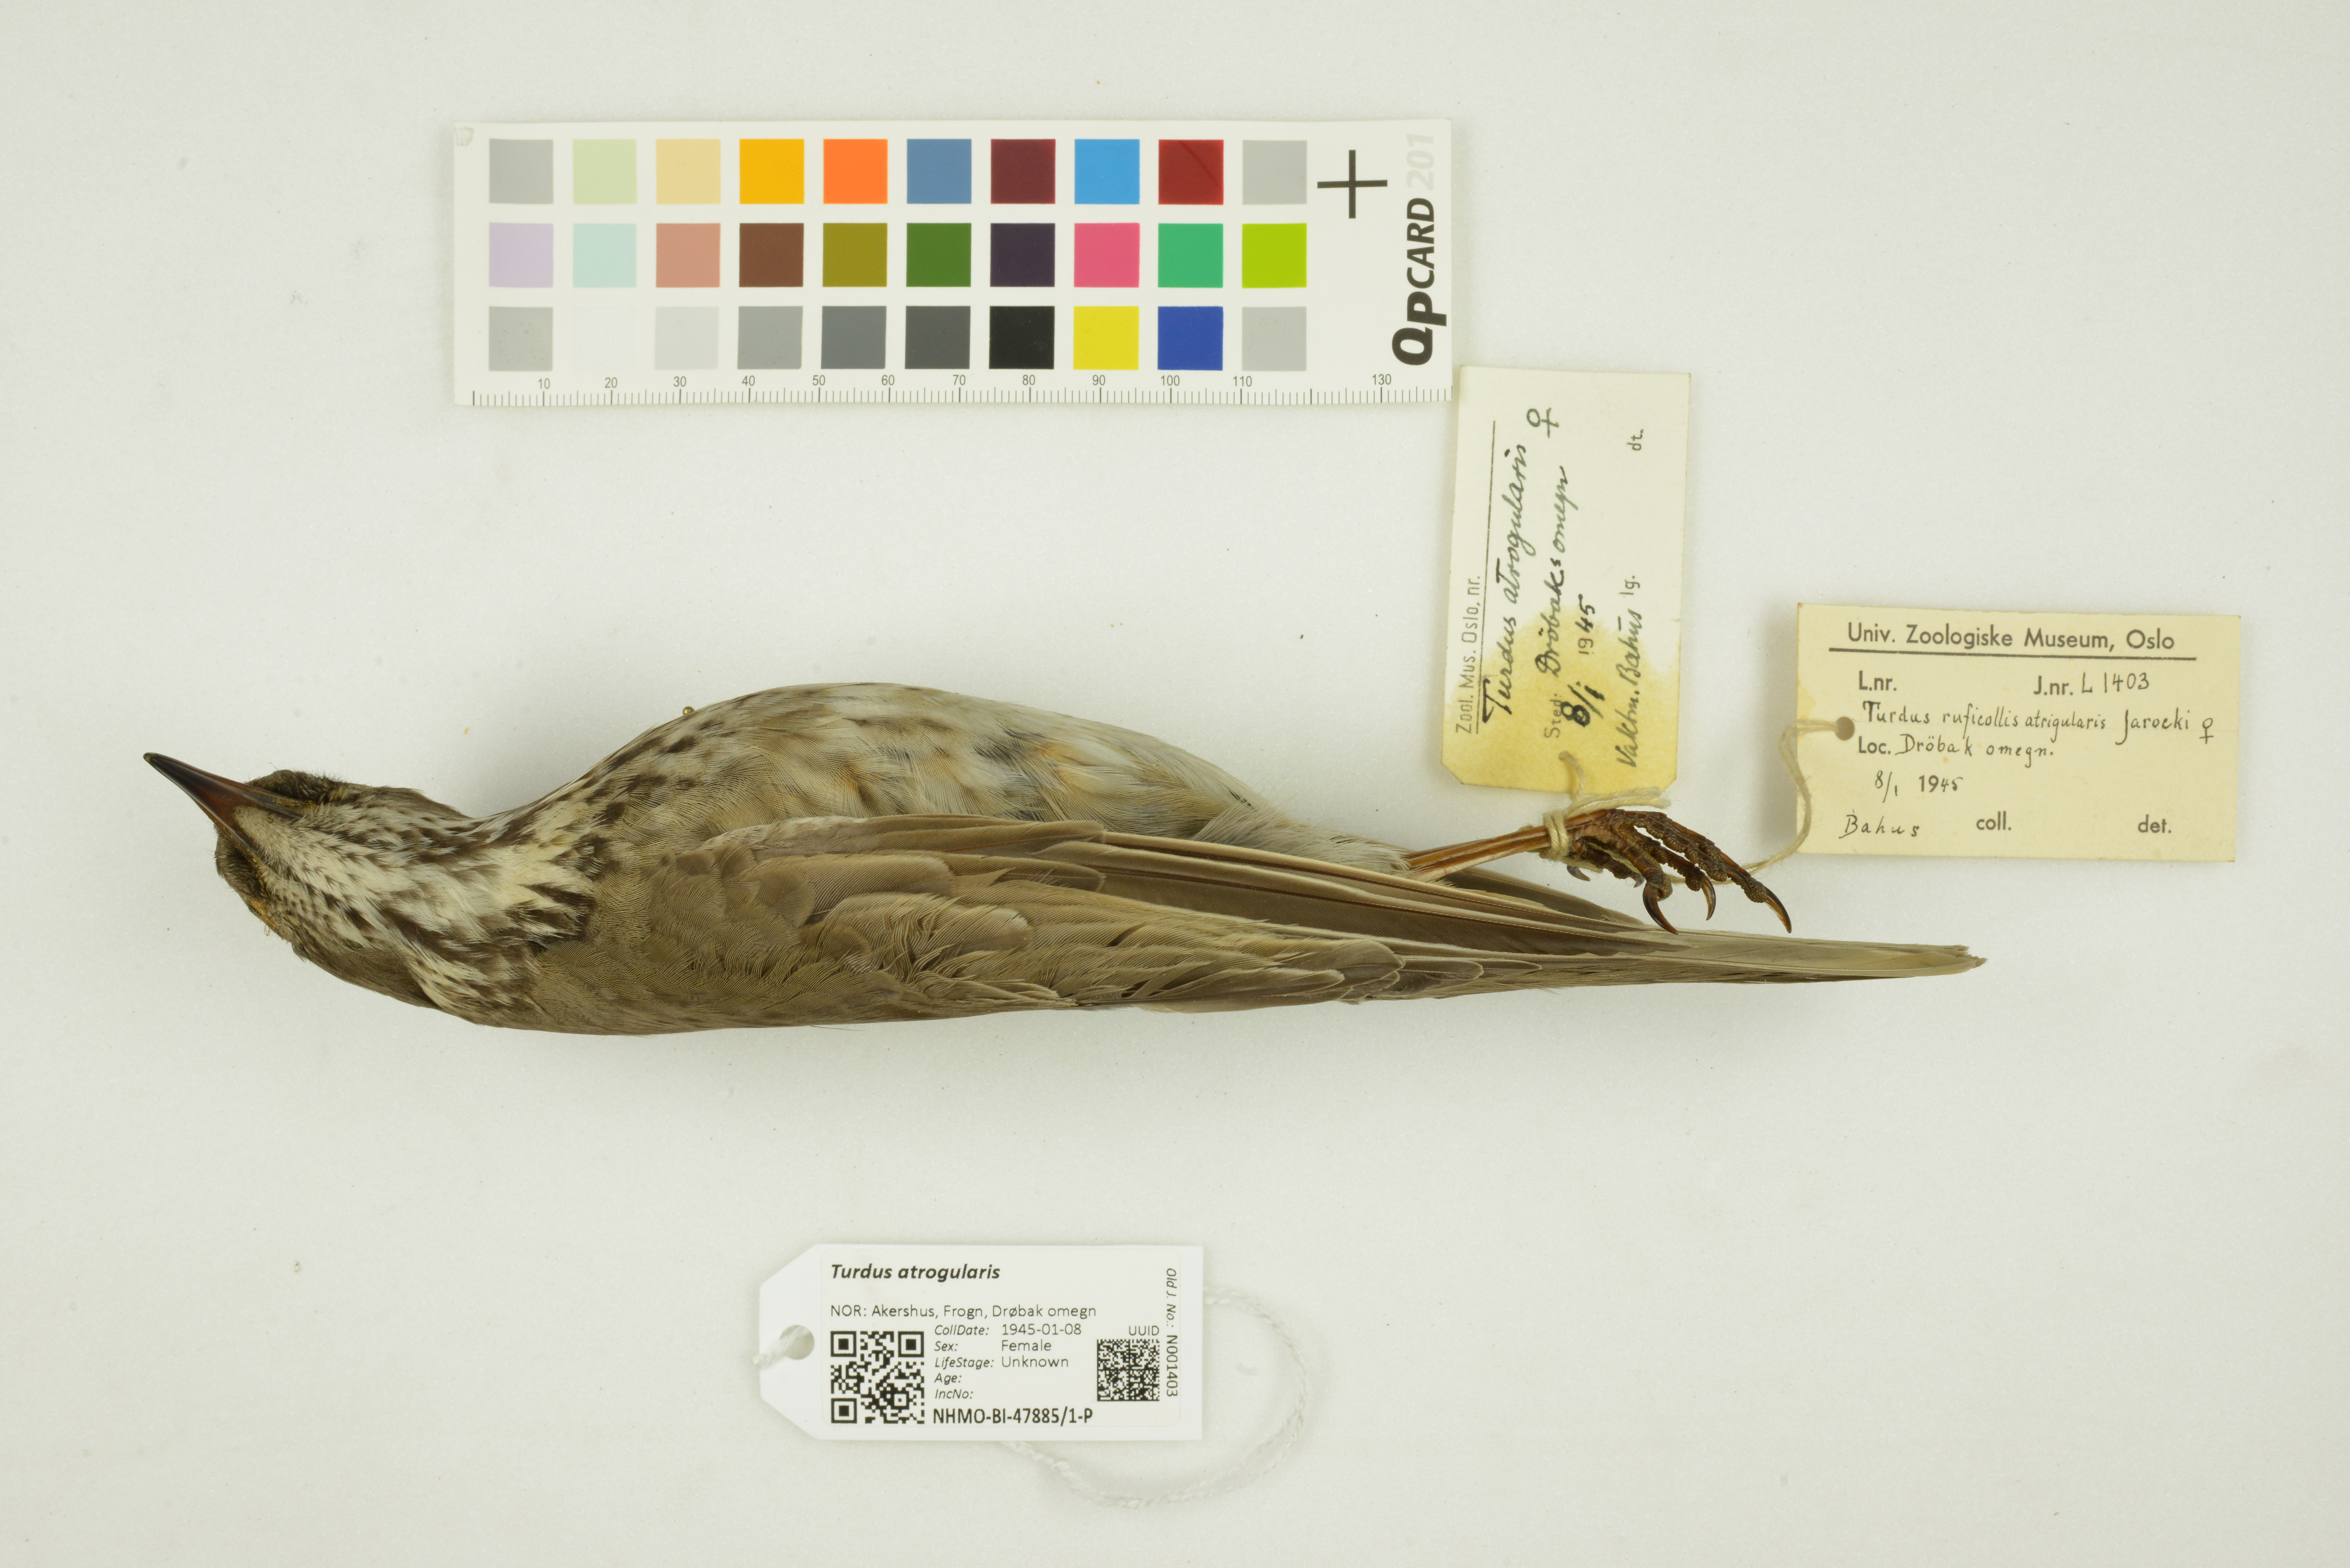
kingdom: Animalia
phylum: Chordata
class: Aves
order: Passeriformes
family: Turdidae
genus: Turdus
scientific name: Turdus atrogularis
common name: Black-throated thrush
